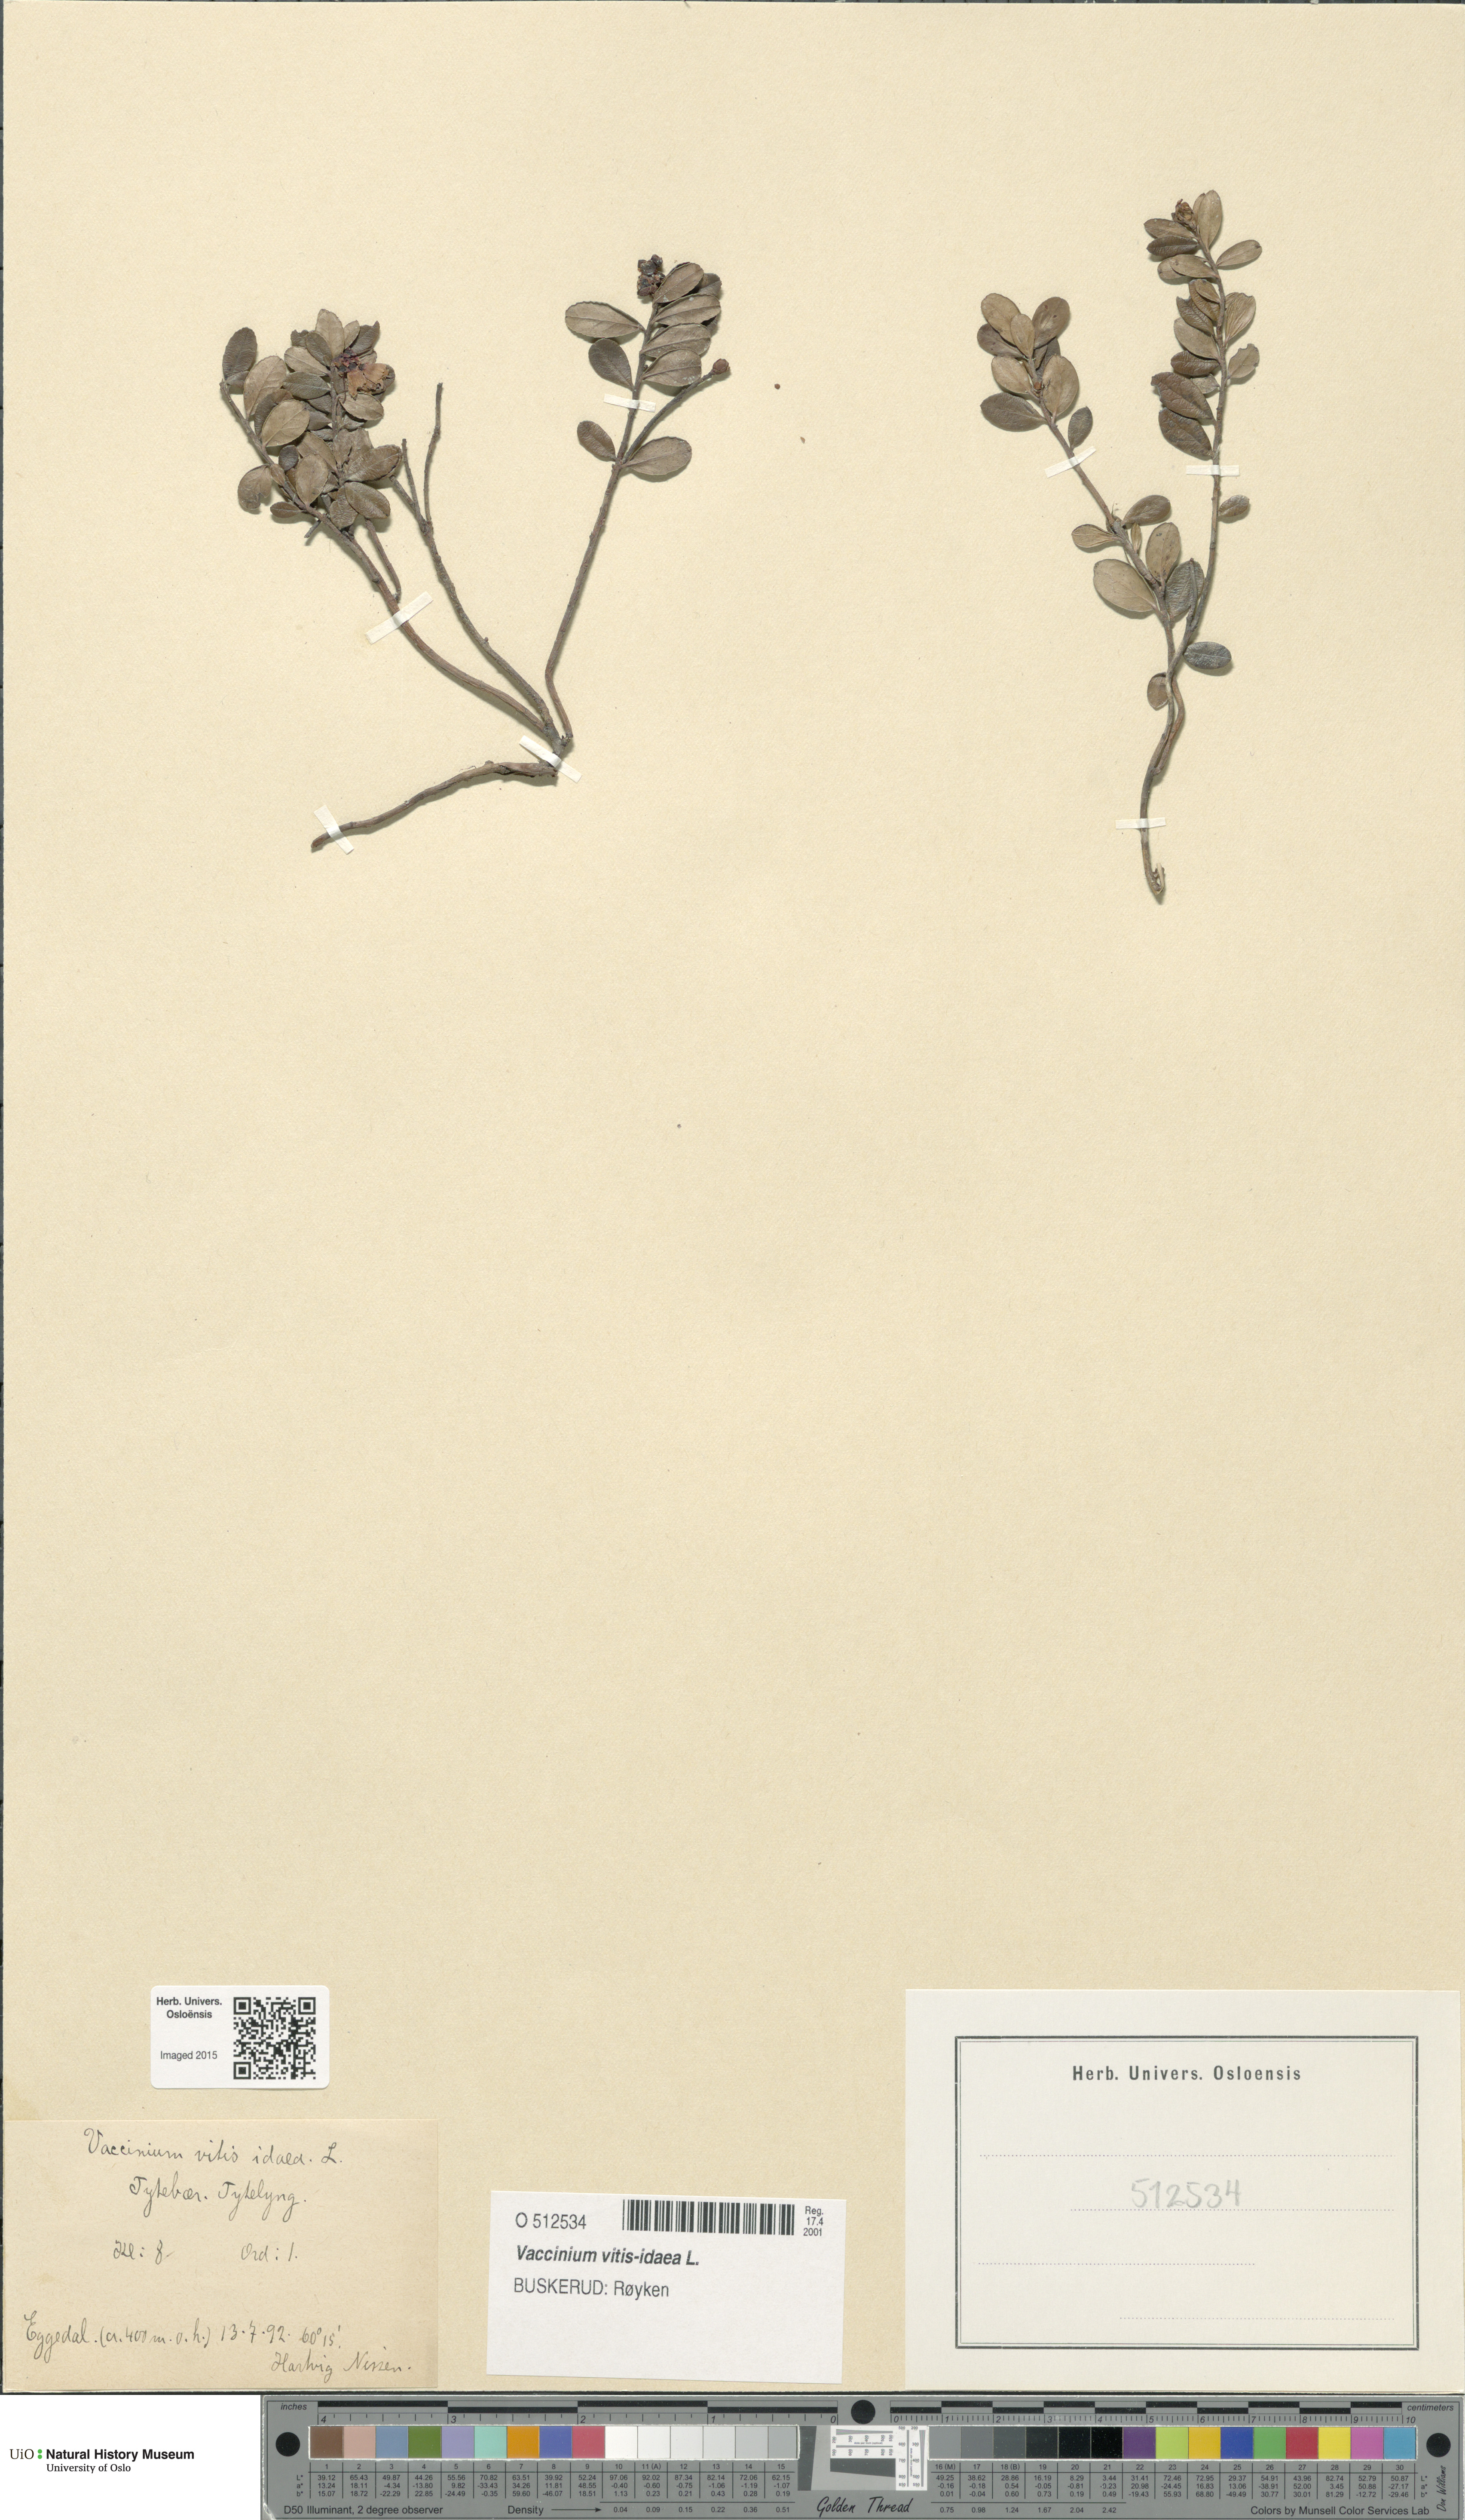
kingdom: Plantae
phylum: Tracheophyta
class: Magnoliopsida
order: Ericales
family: Ericaceae
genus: Vaccinium
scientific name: Vaccinium vitis-idaea
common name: Cowberry
